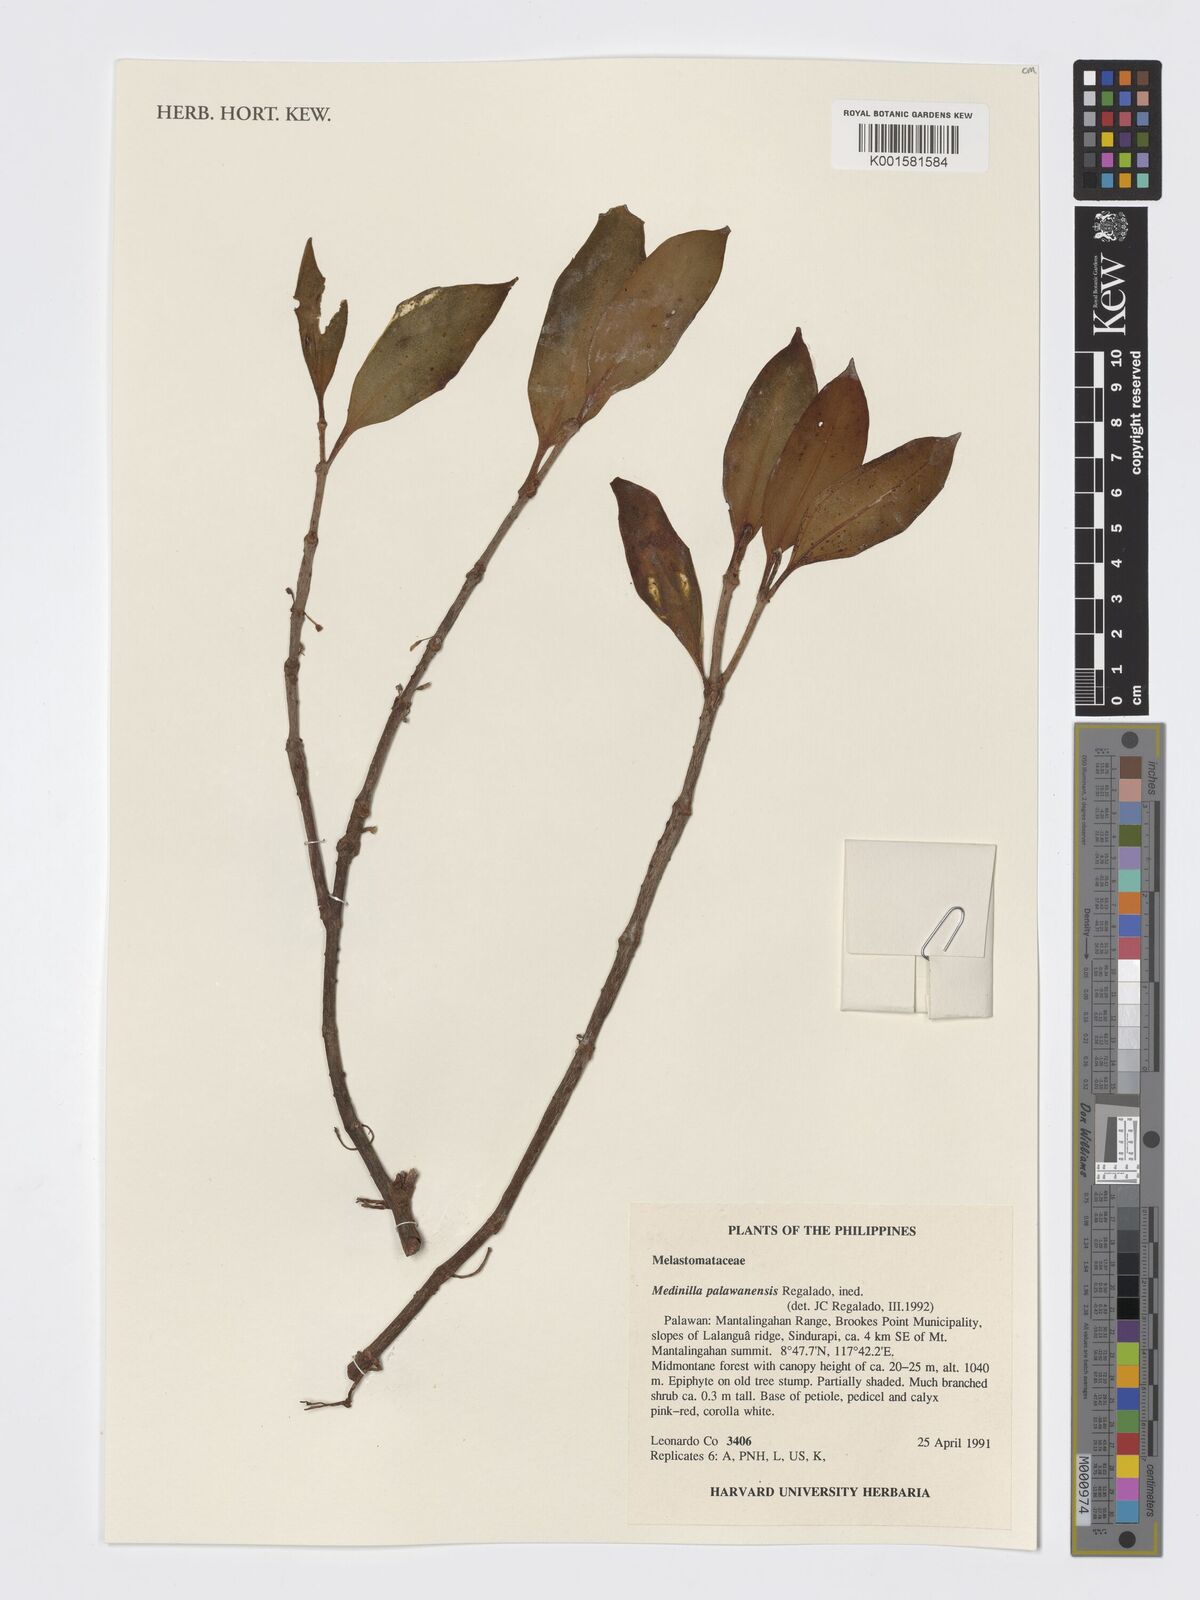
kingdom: Plantae
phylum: Tracheophyta
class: Magnoliopsida
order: Myrtales
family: Melastomataceae
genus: Medinilla
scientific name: Medinilla palawanensis
